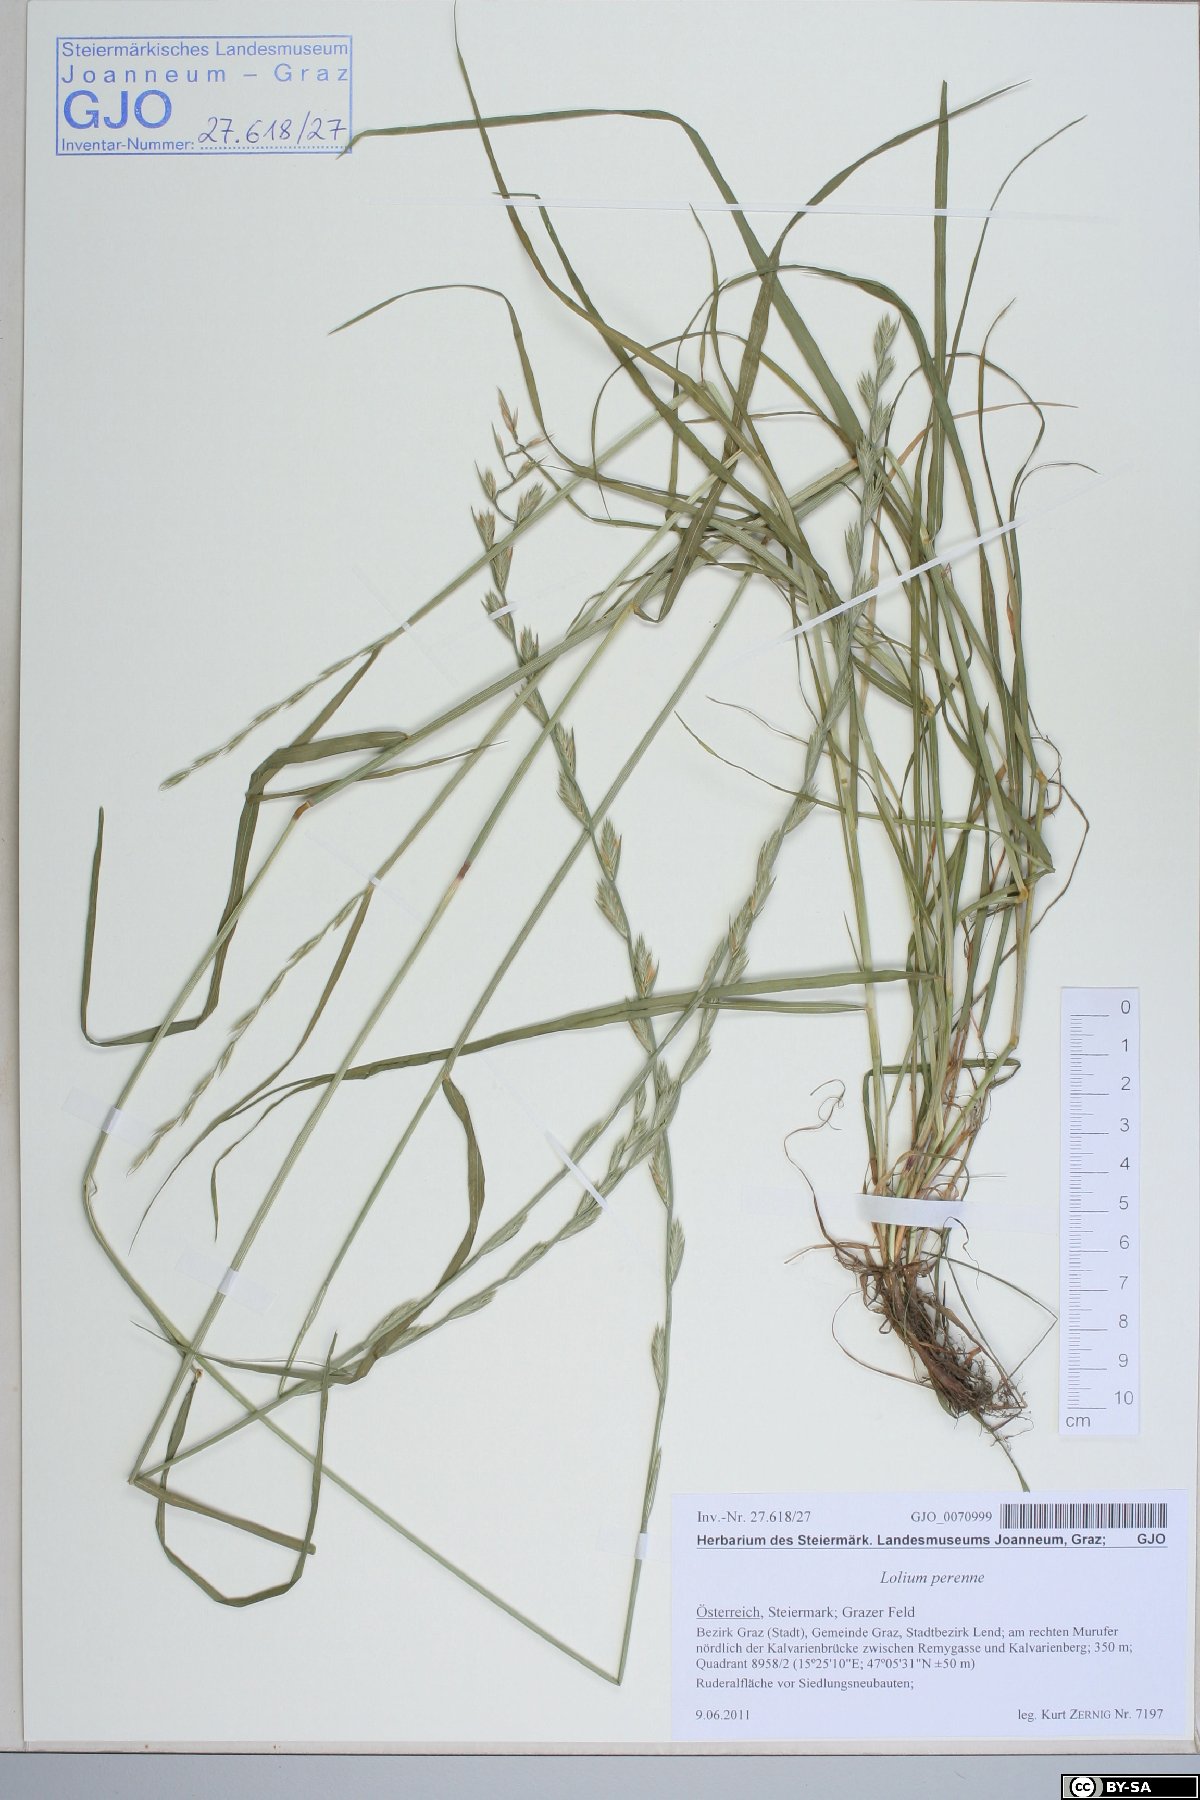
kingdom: Plantae
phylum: Tracheophyta
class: Liliopsida
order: Poales
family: Poaceae
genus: Lolium
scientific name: Lolium perenne
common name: Perennial ryegrass
